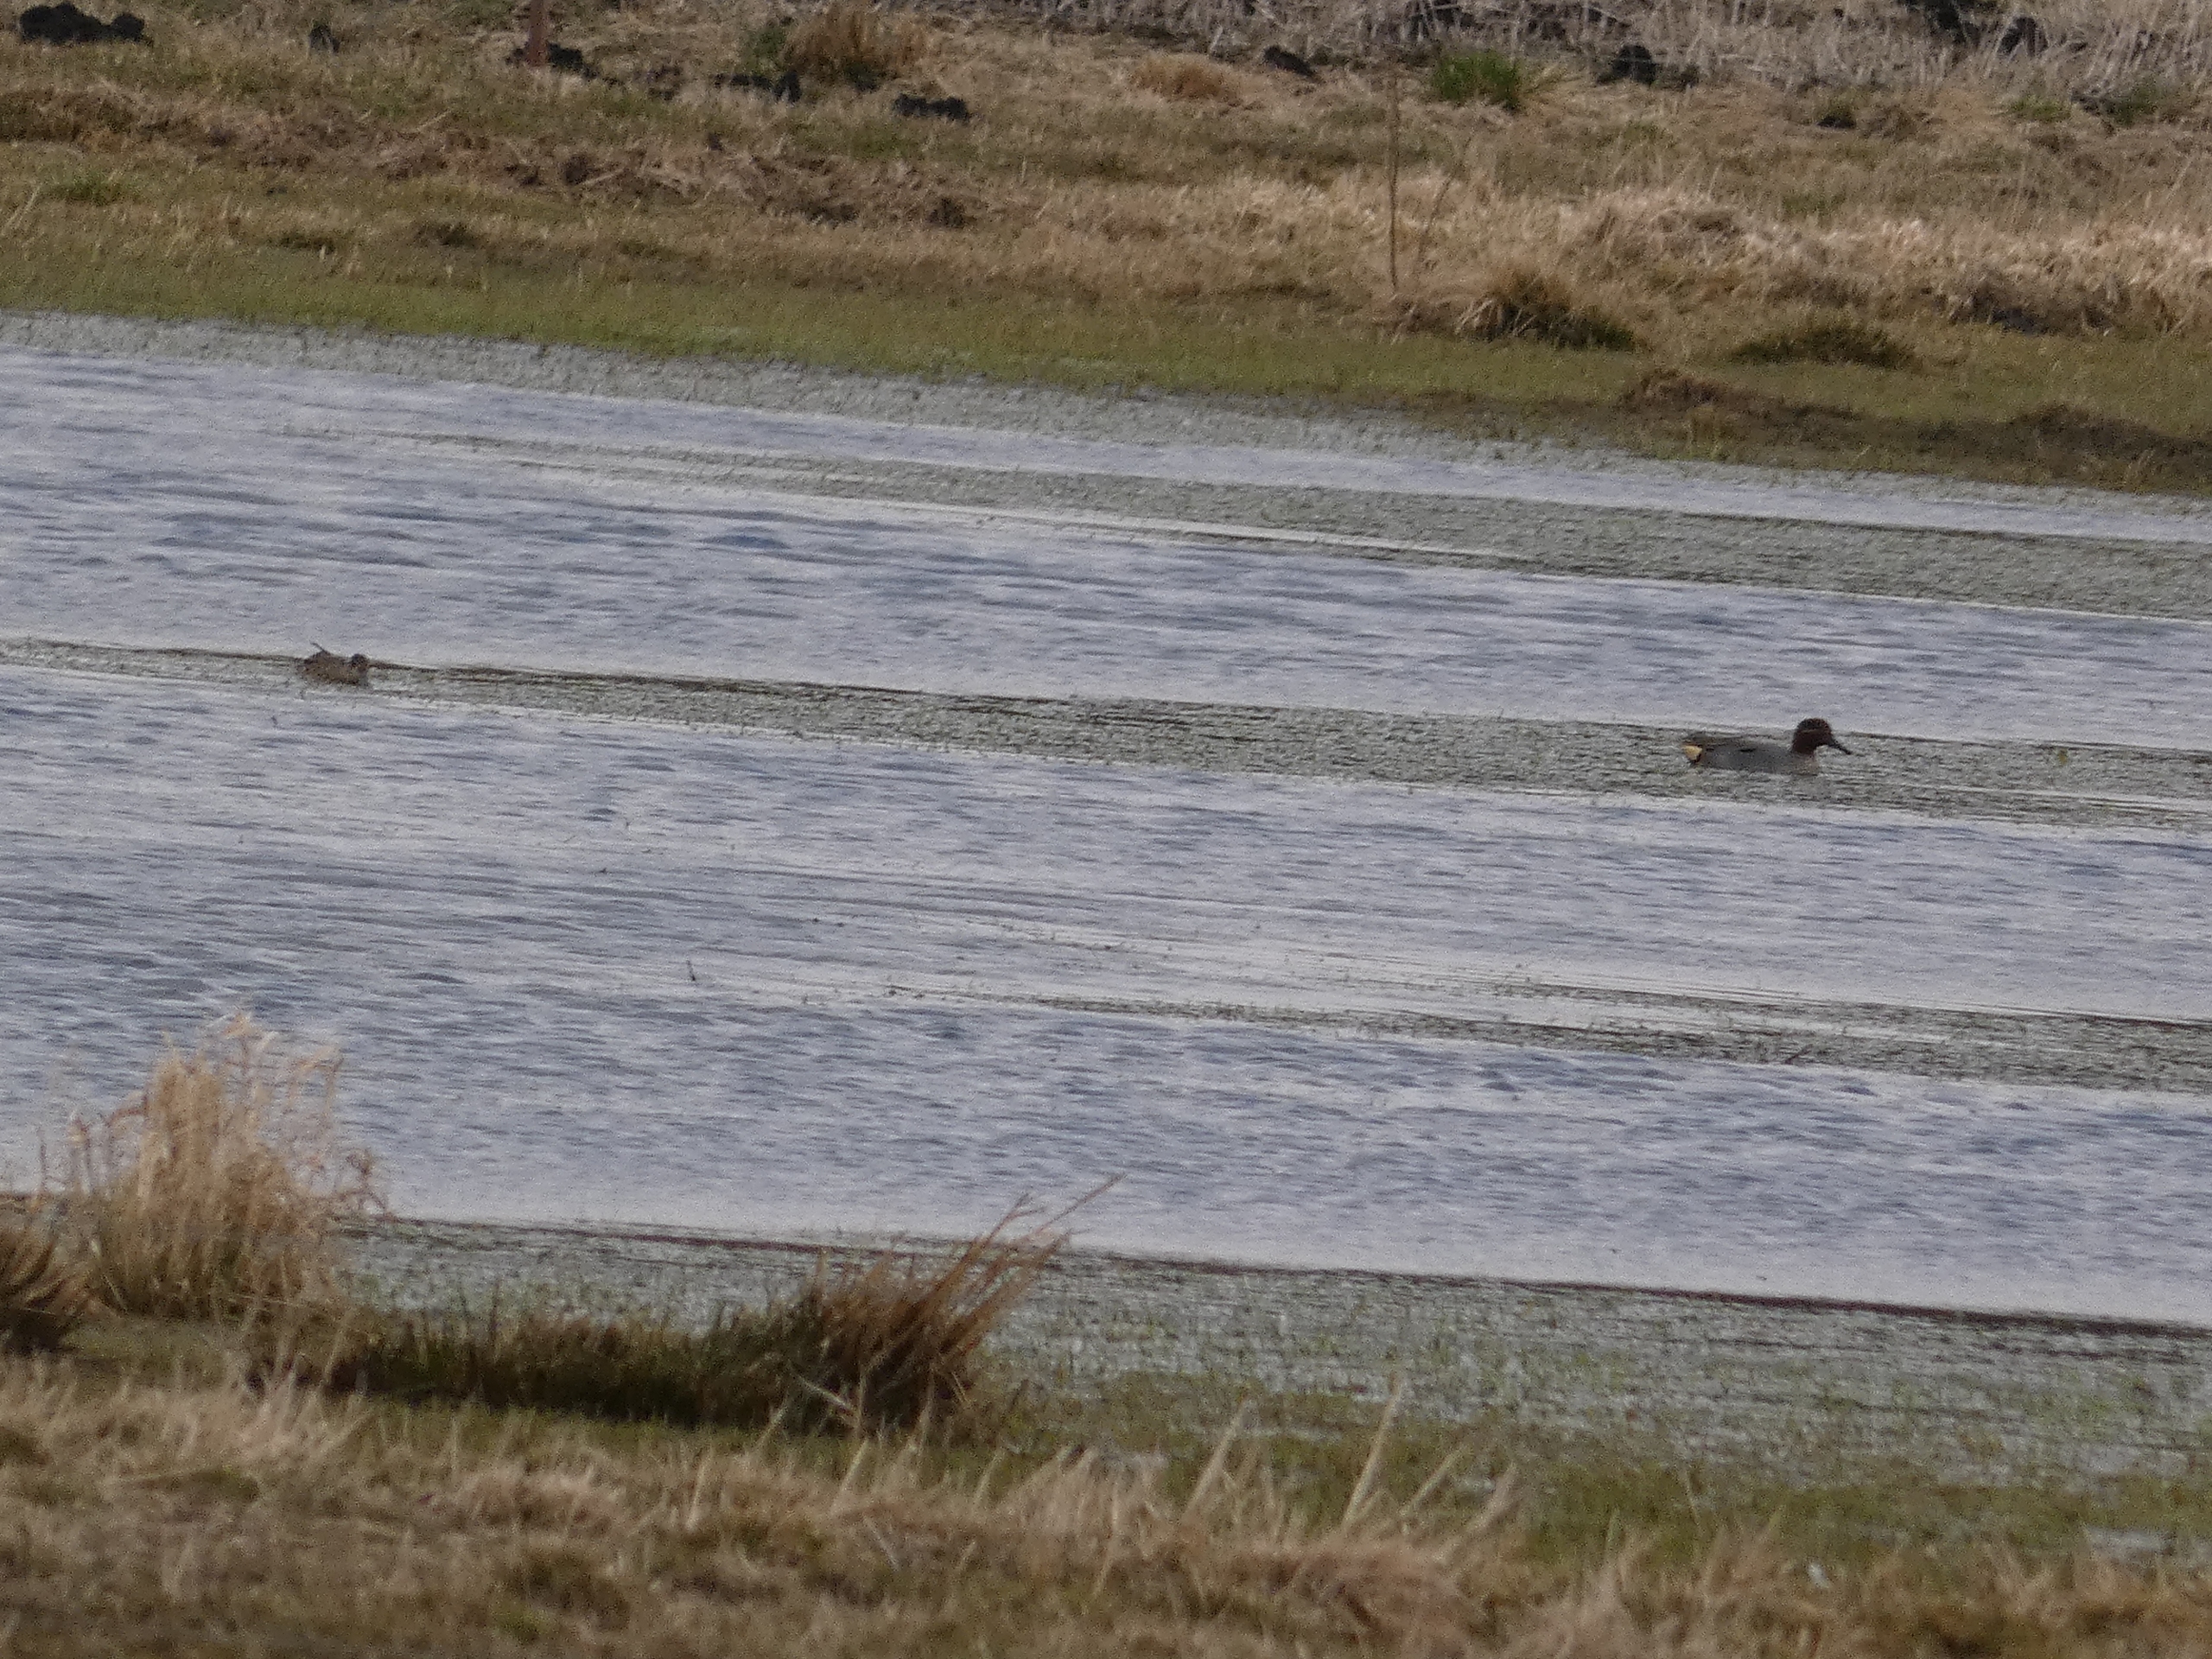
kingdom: Animalia
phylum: Chordata
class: Aves
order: Anseriformes
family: Anatidae
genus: Anas
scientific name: Anas crecca
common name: Krikand
